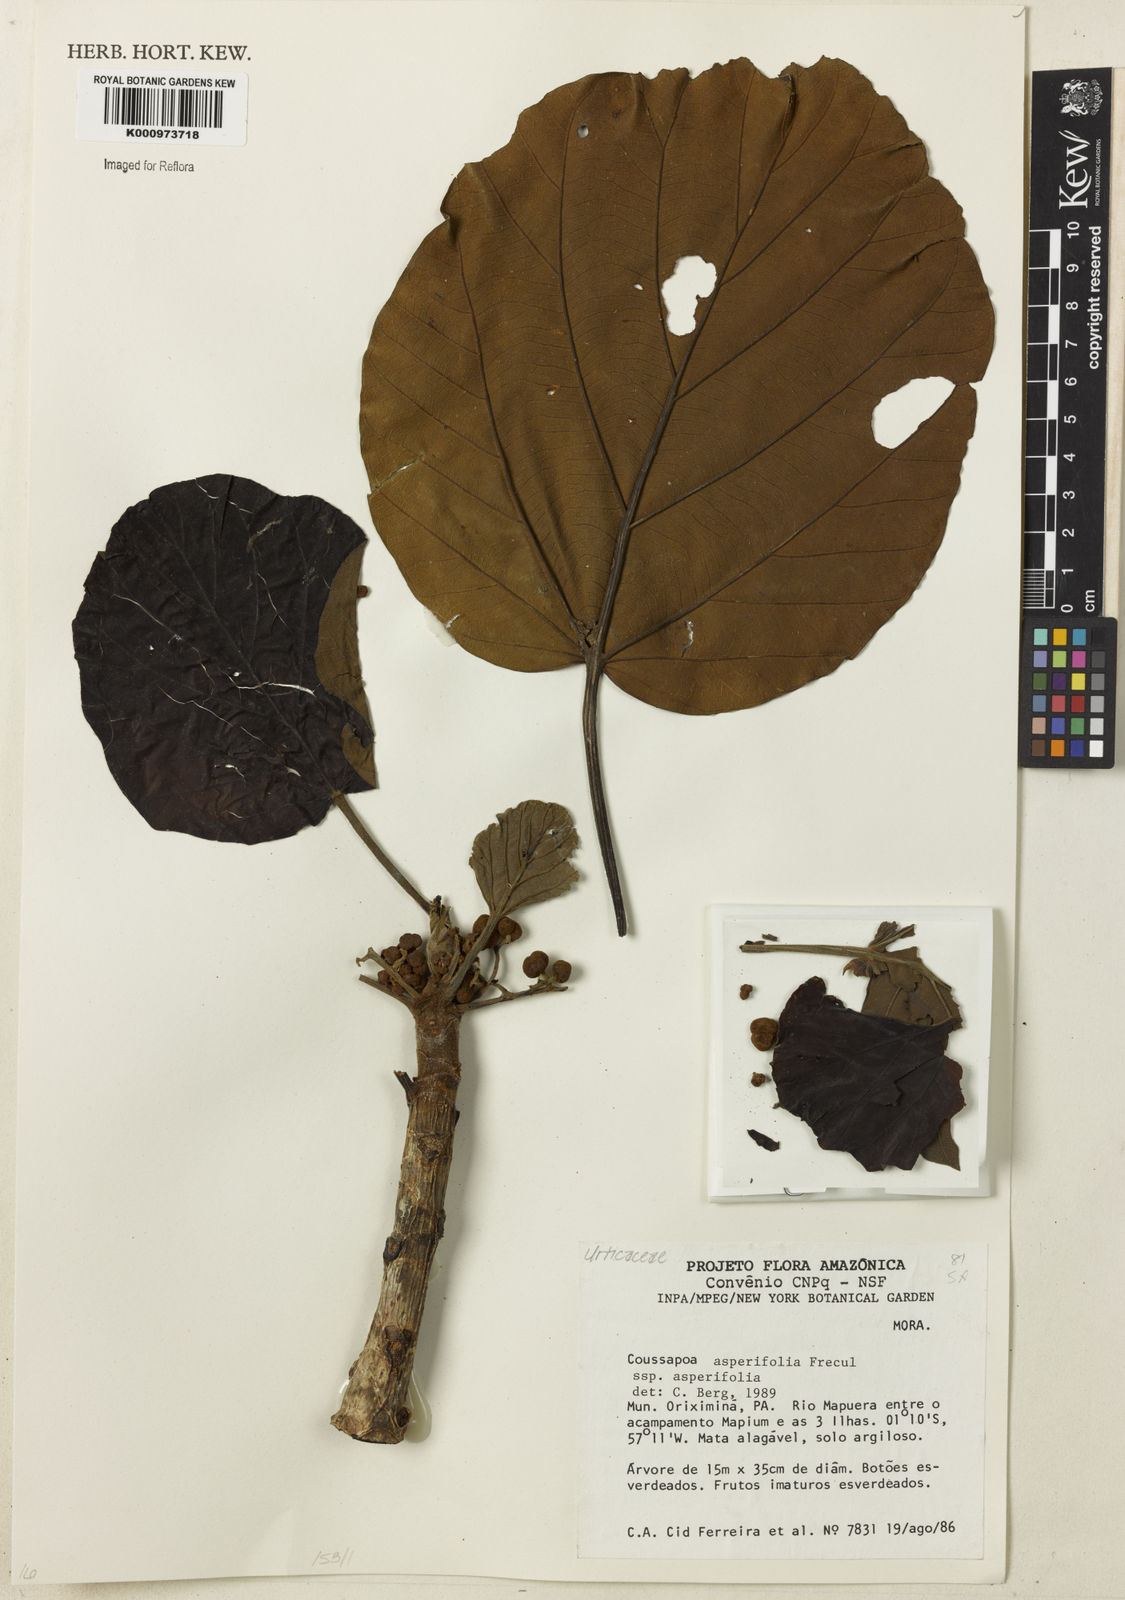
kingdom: Plantae
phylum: Tracheophyta
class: Magnoliopsida
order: Rosales
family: Urticaceae
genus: Coussapoa
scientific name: Coussapoa
